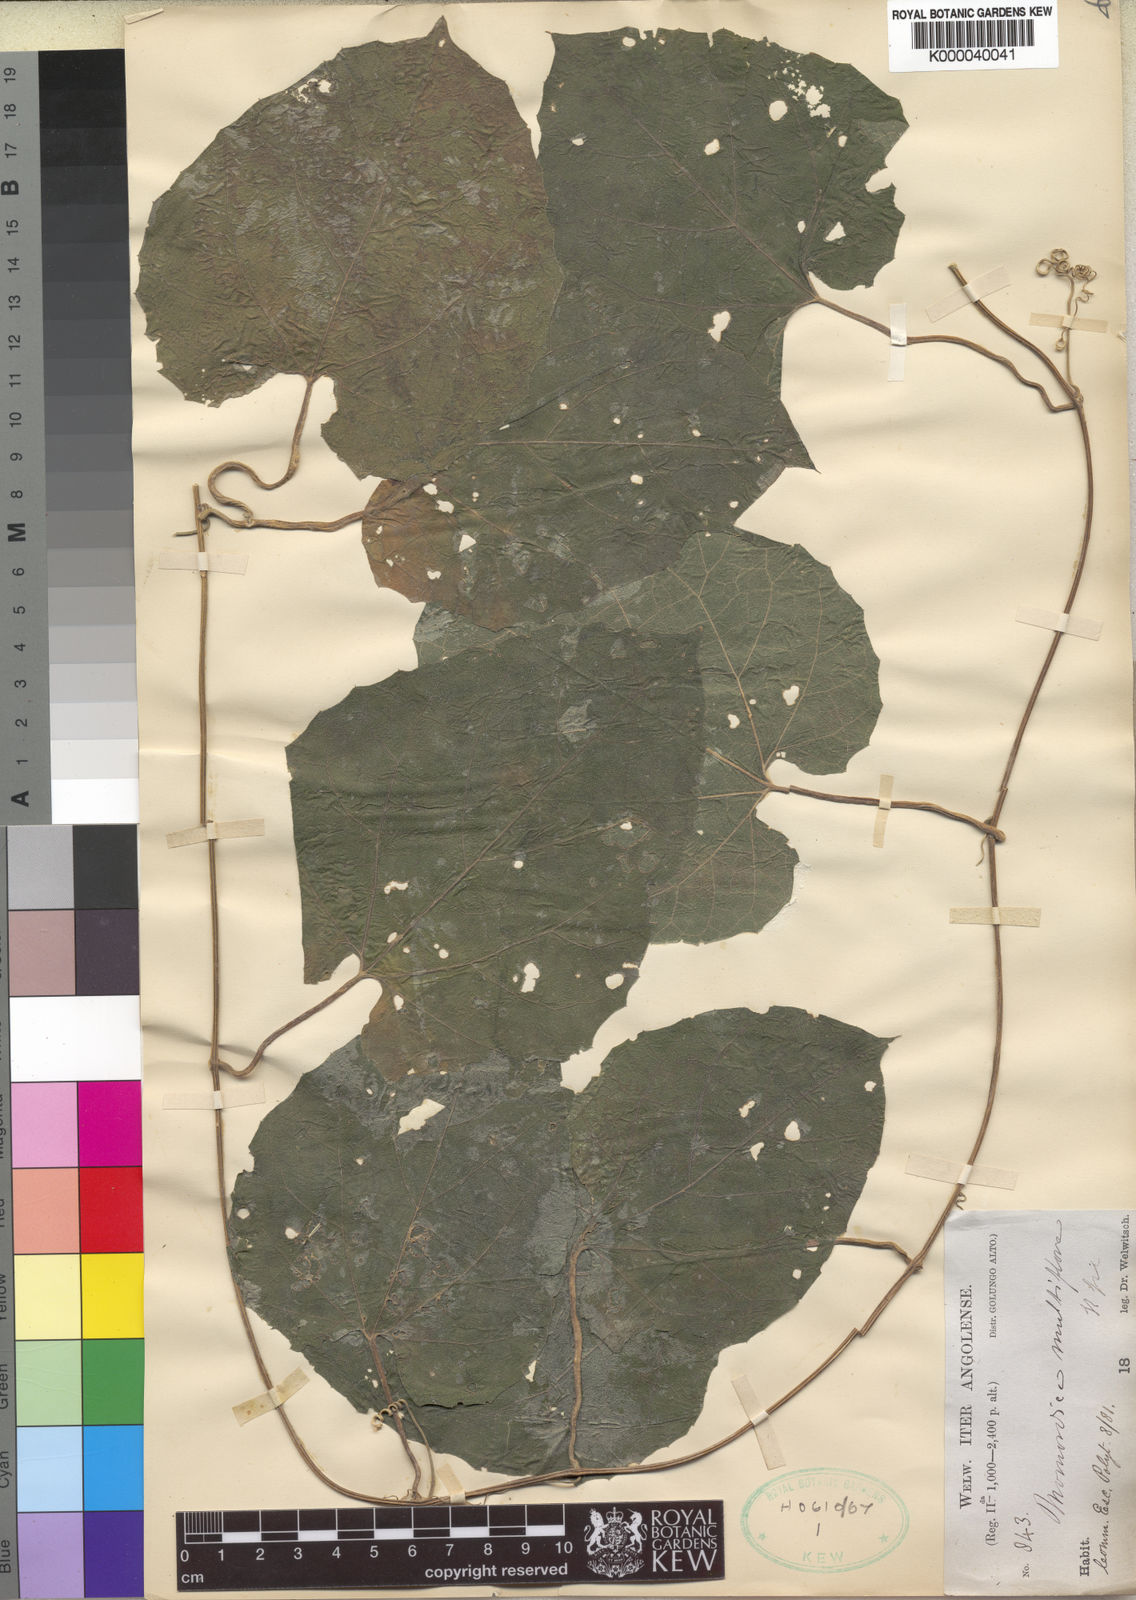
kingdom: Plantae
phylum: Tracheophyta
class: Magnoliopsida
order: Cucurbitales
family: Cucurbitaceae
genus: Momordica
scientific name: Momordica multiflora
